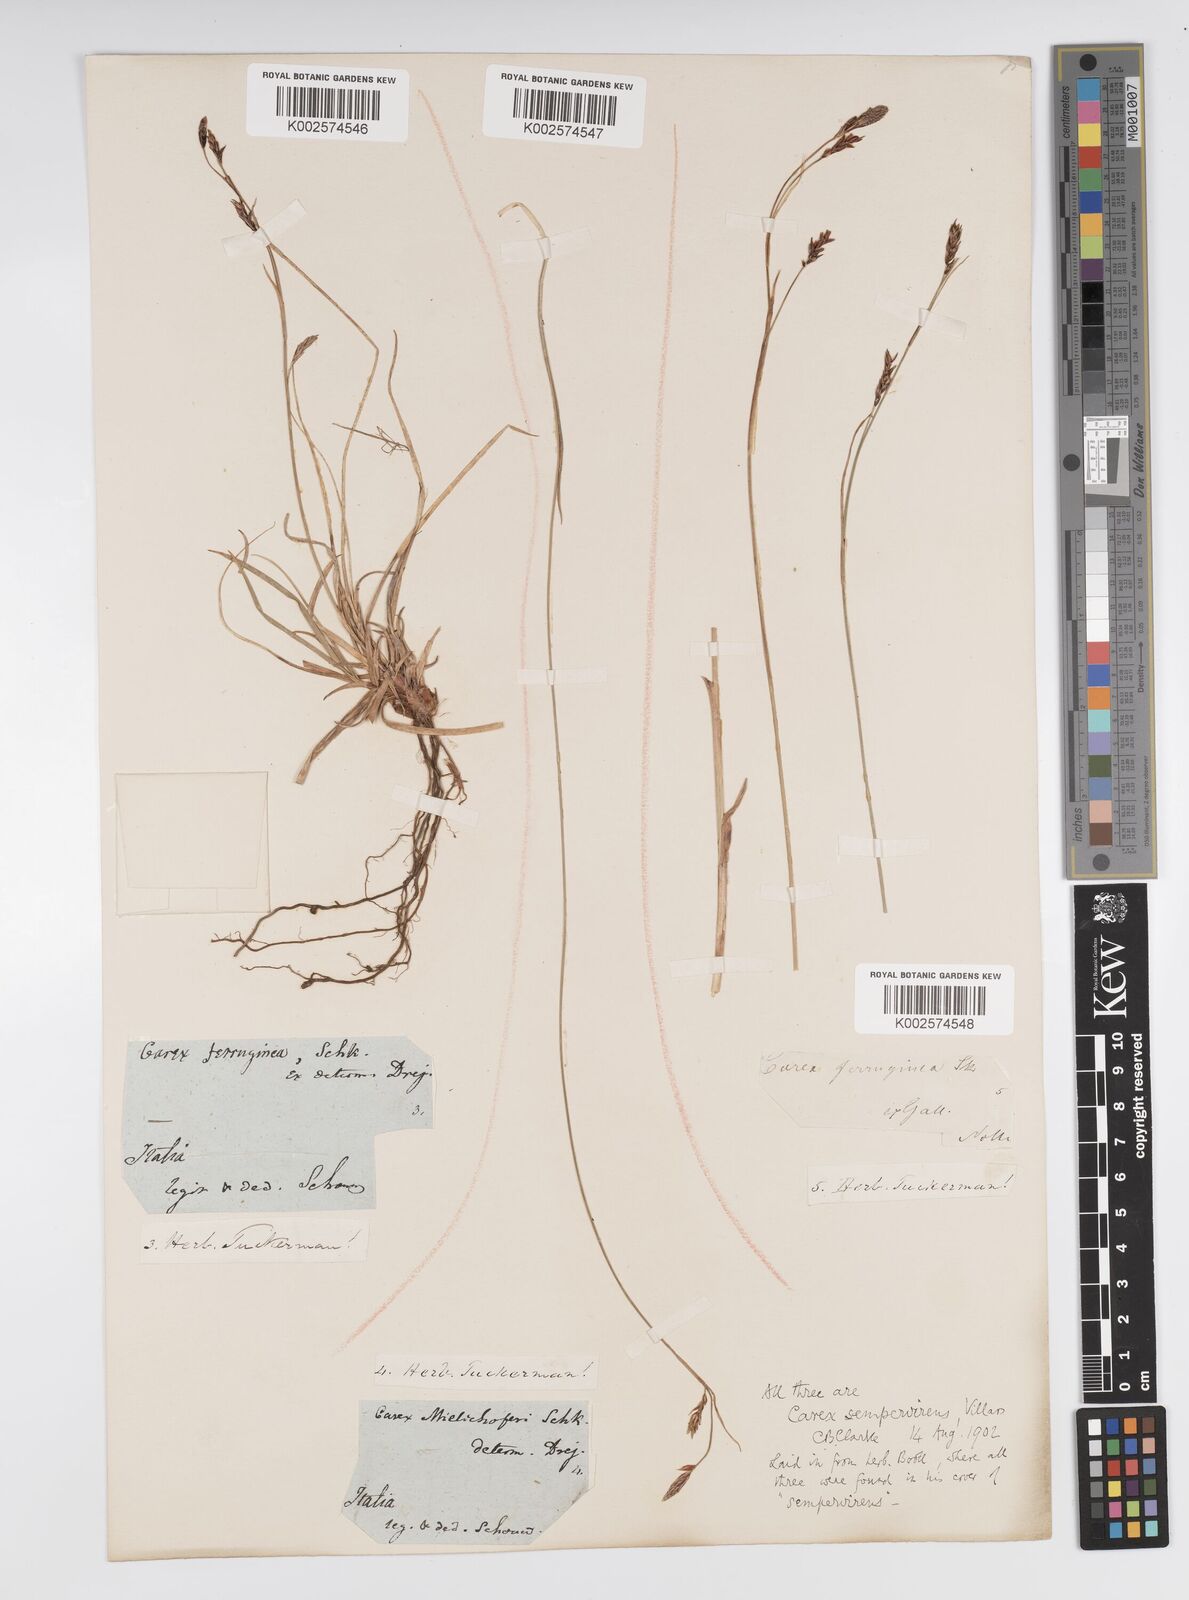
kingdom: Plantae
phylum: Tracheophyta
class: Liliopsida
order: Poales
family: Cyperaceae
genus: Carex
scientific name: Carex sempervirens
